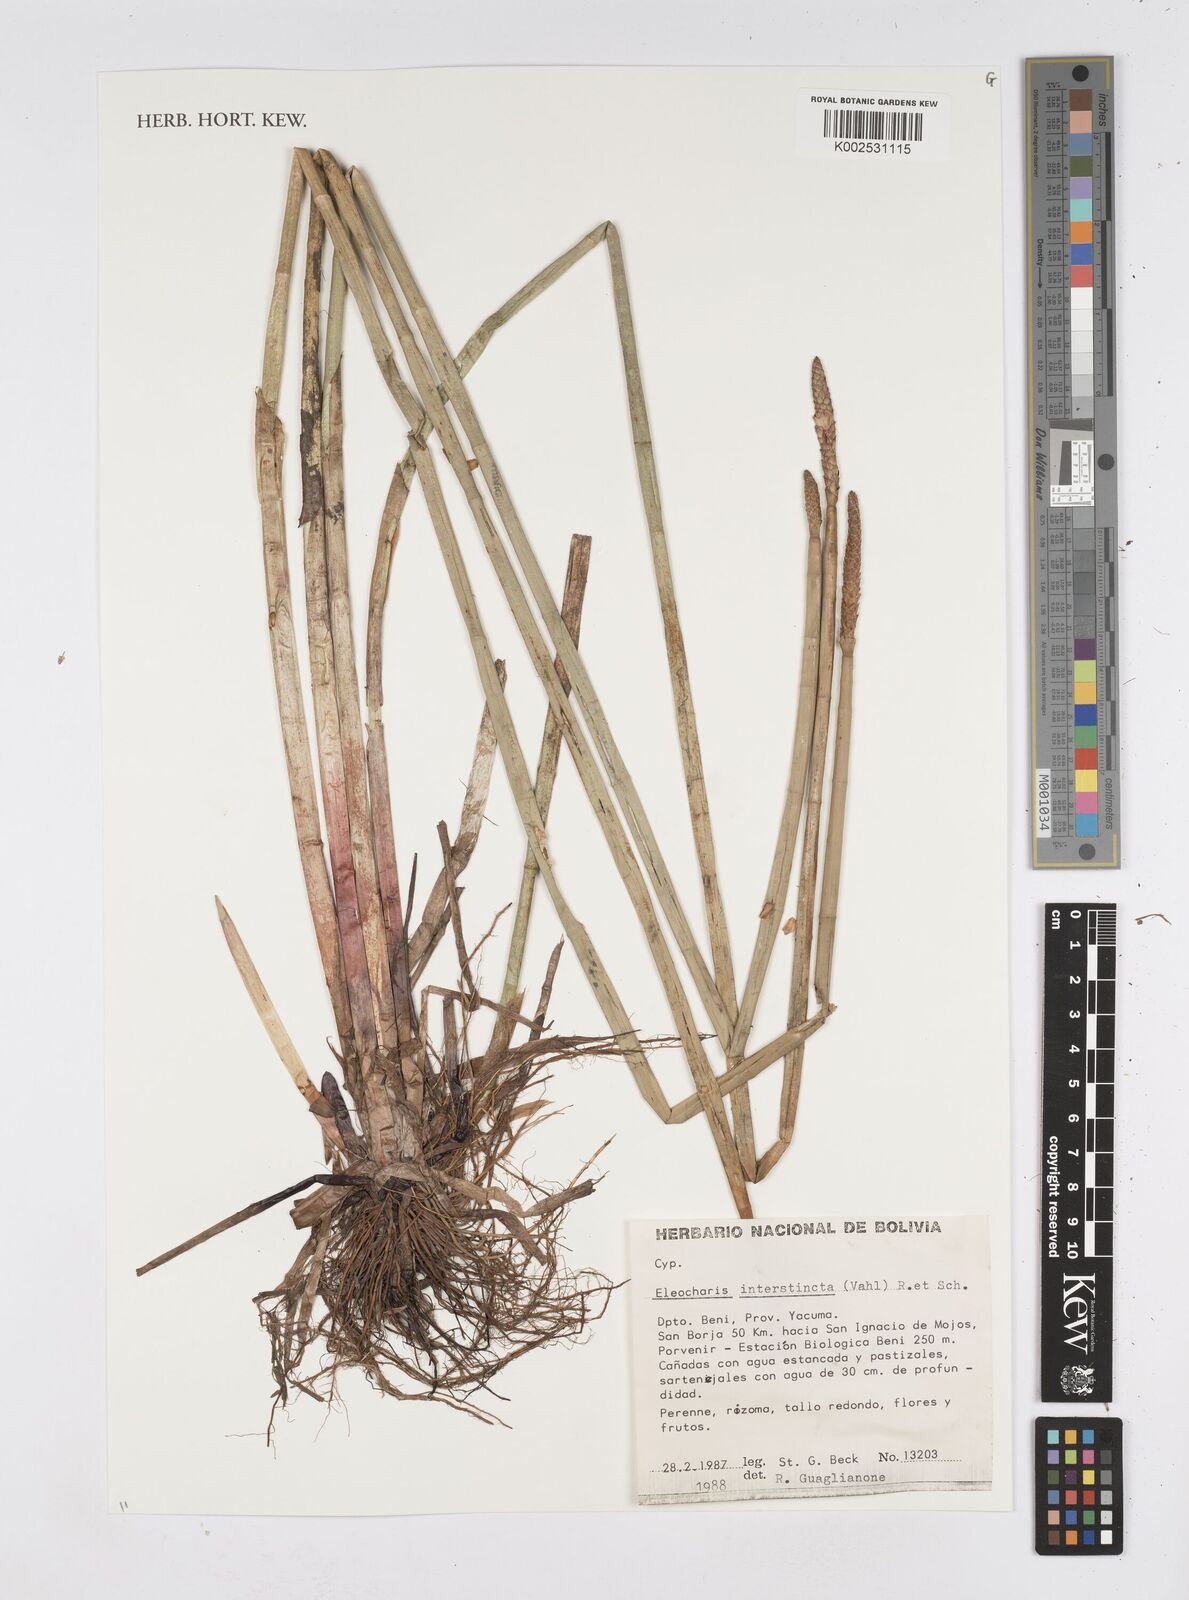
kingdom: Plantae
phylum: Tracheophyta
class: Liliopsida
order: Poales
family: Cyperaceae
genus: Eleocharis
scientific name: Eleocharis interstincta
